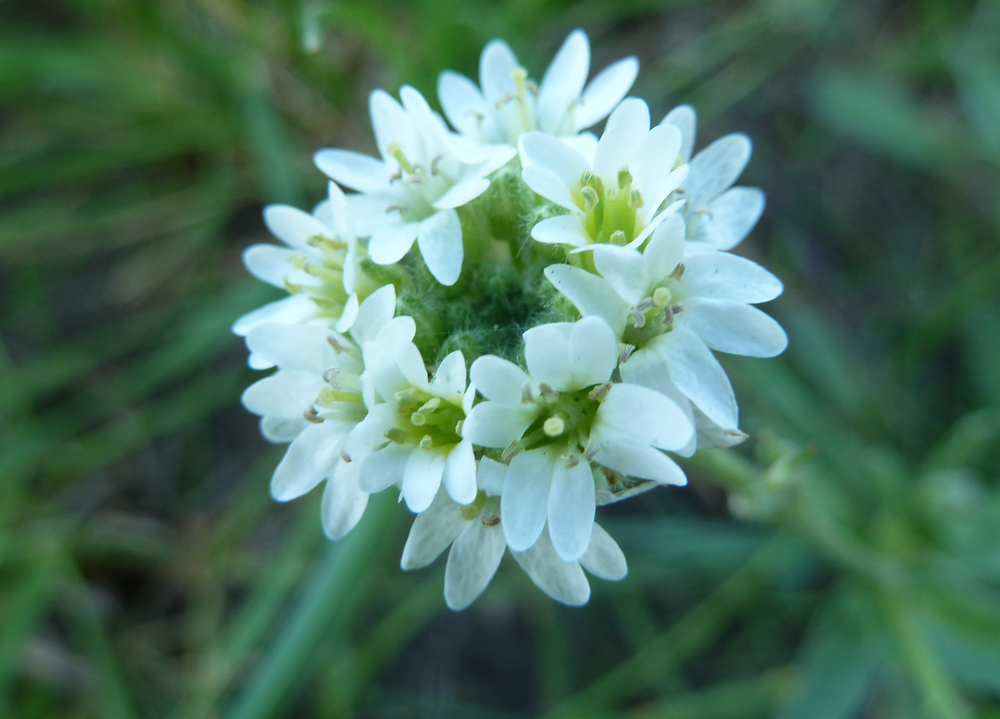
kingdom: Plantae
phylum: Tracheophyta
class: Magnoliopsida
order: Brassicales
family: Brassicaceae
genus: Berteroa
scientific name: Berteroa incana
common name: Hoary alison
